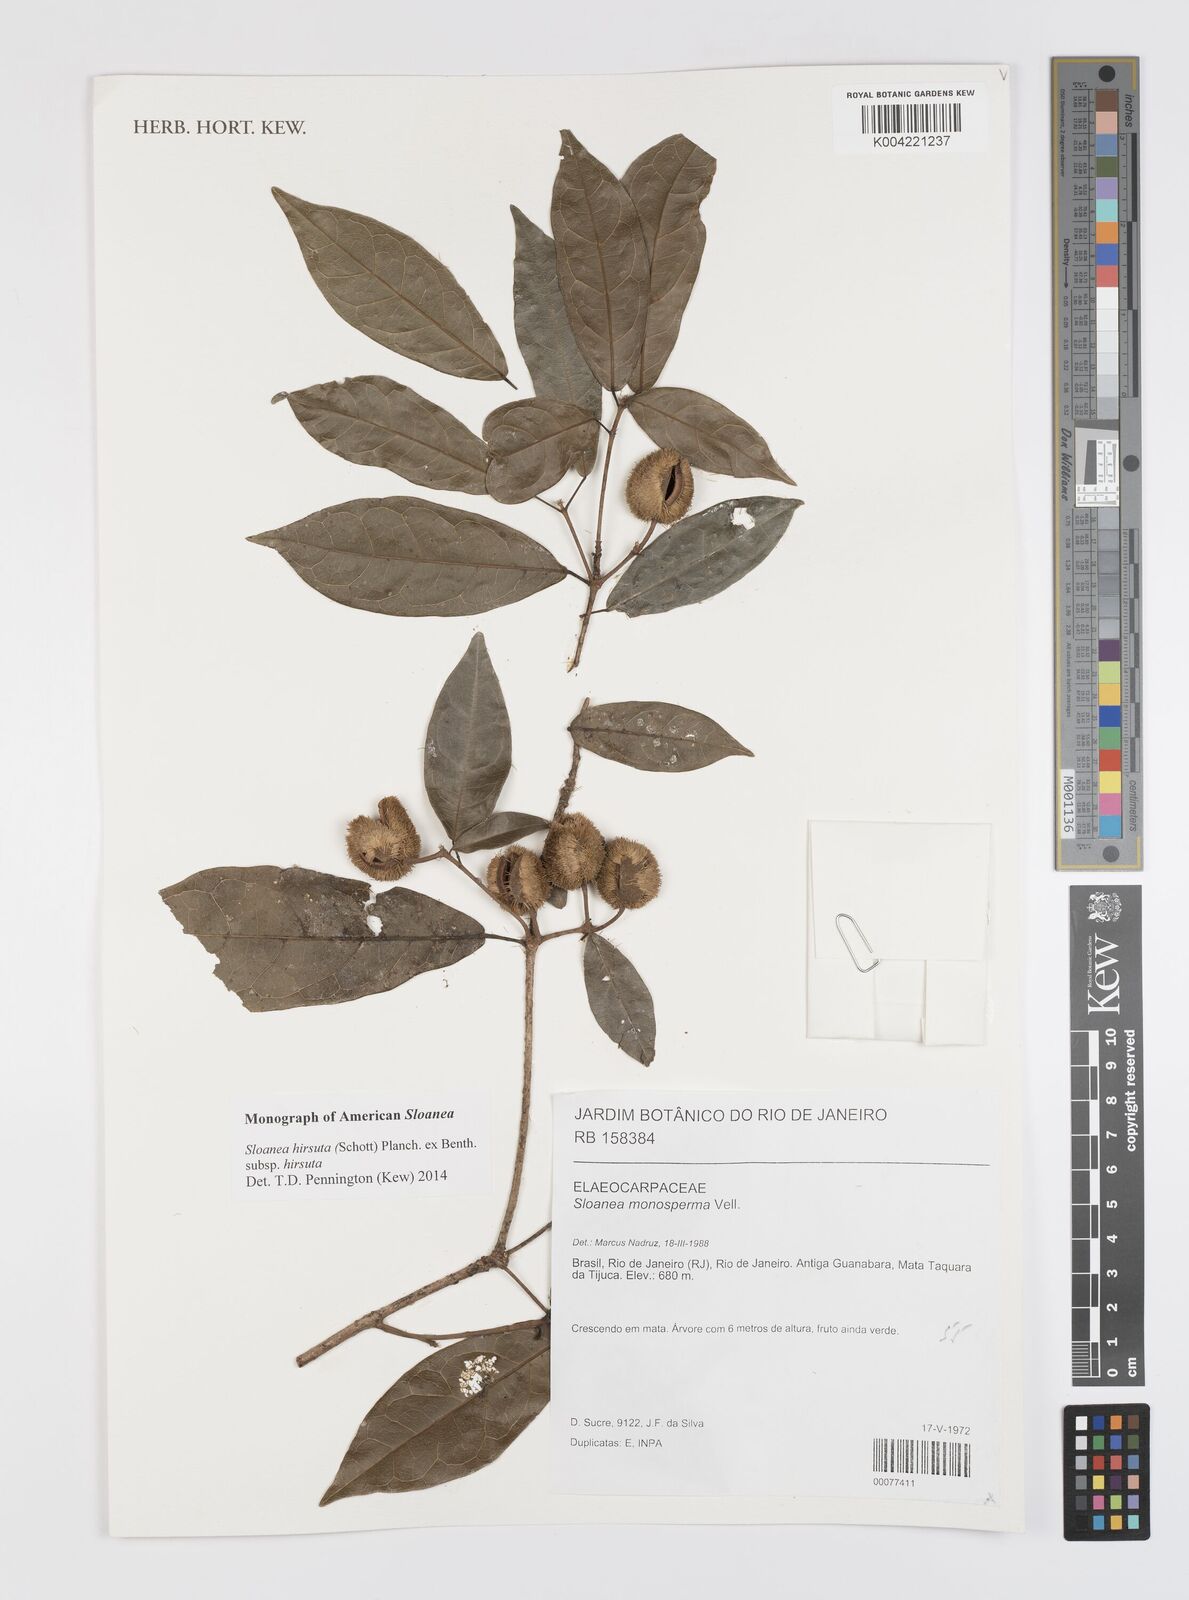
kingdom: Plantae
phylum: Tracheophyta
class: Magnoliopsida
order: Oxalidales
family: Elaeocarpaceae
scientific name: Elaeocarpaceae
